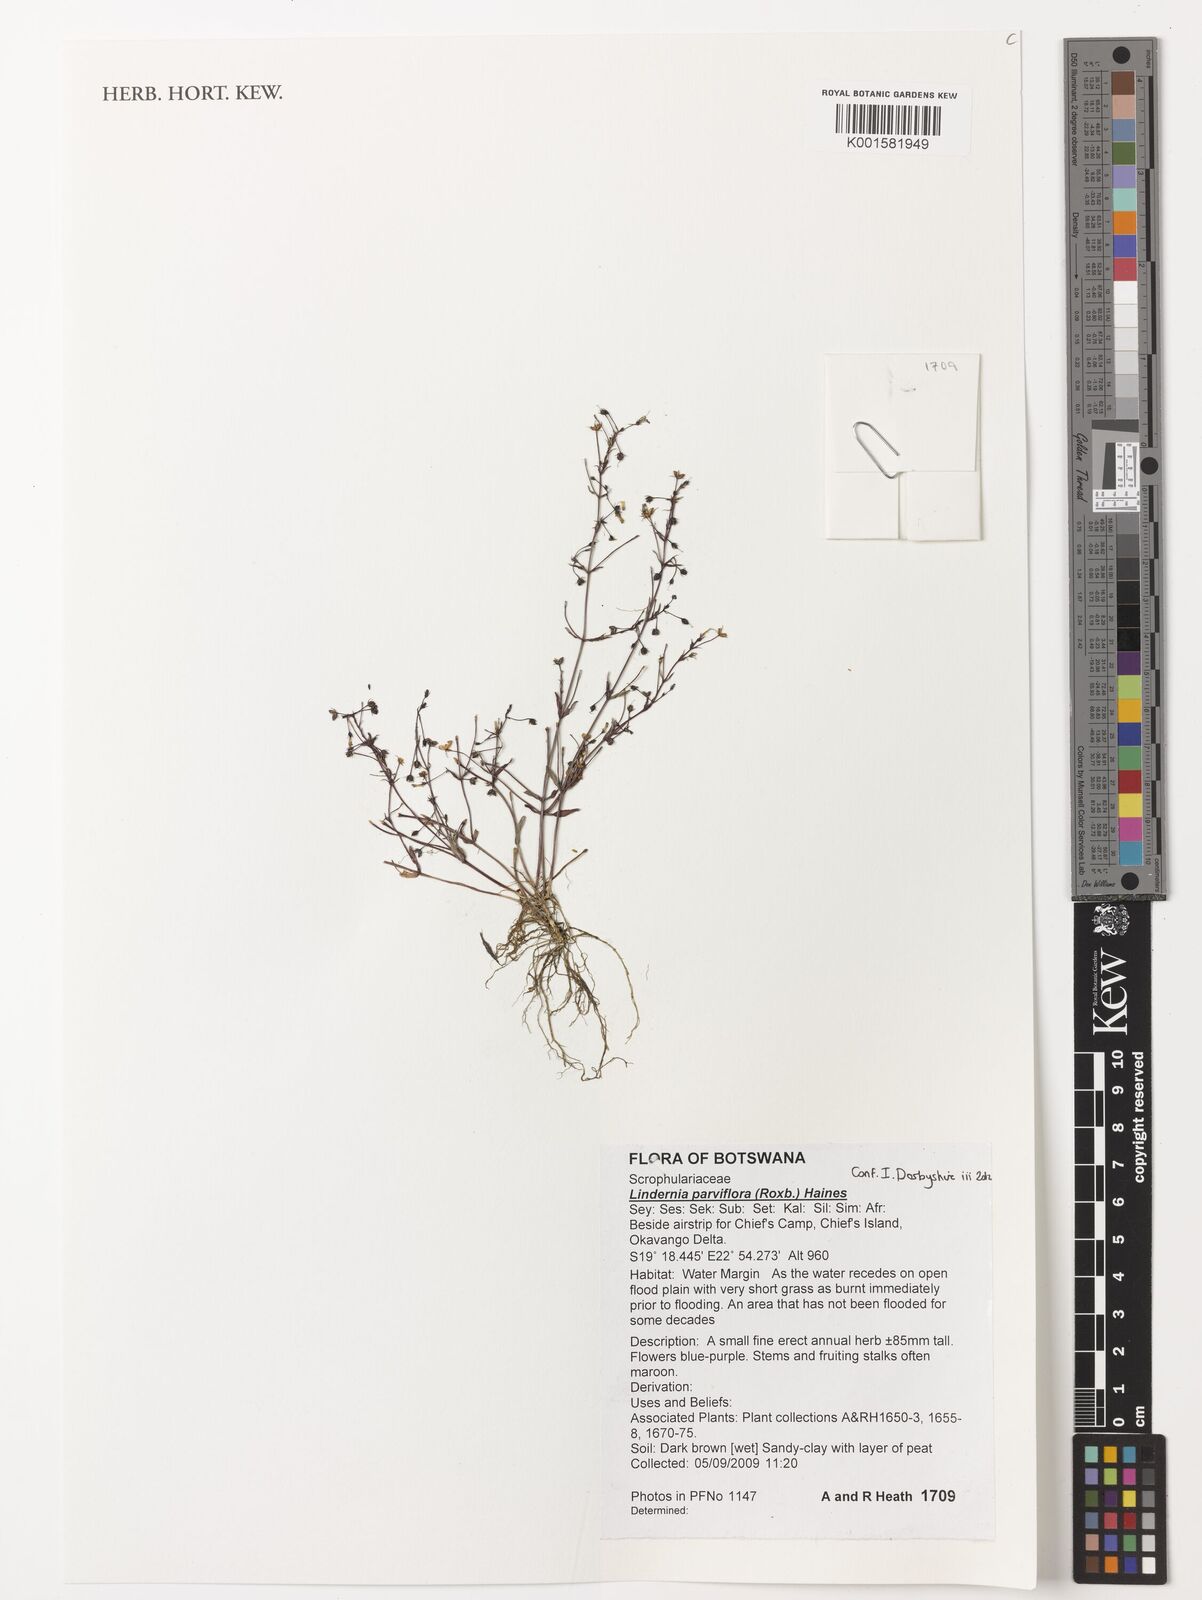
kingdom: Plantae
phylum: Tracheophyta
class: Magnoliopsida
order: Lamiales
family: Linderniaceae
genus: Lindernia
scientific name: Lindernia parviflora
